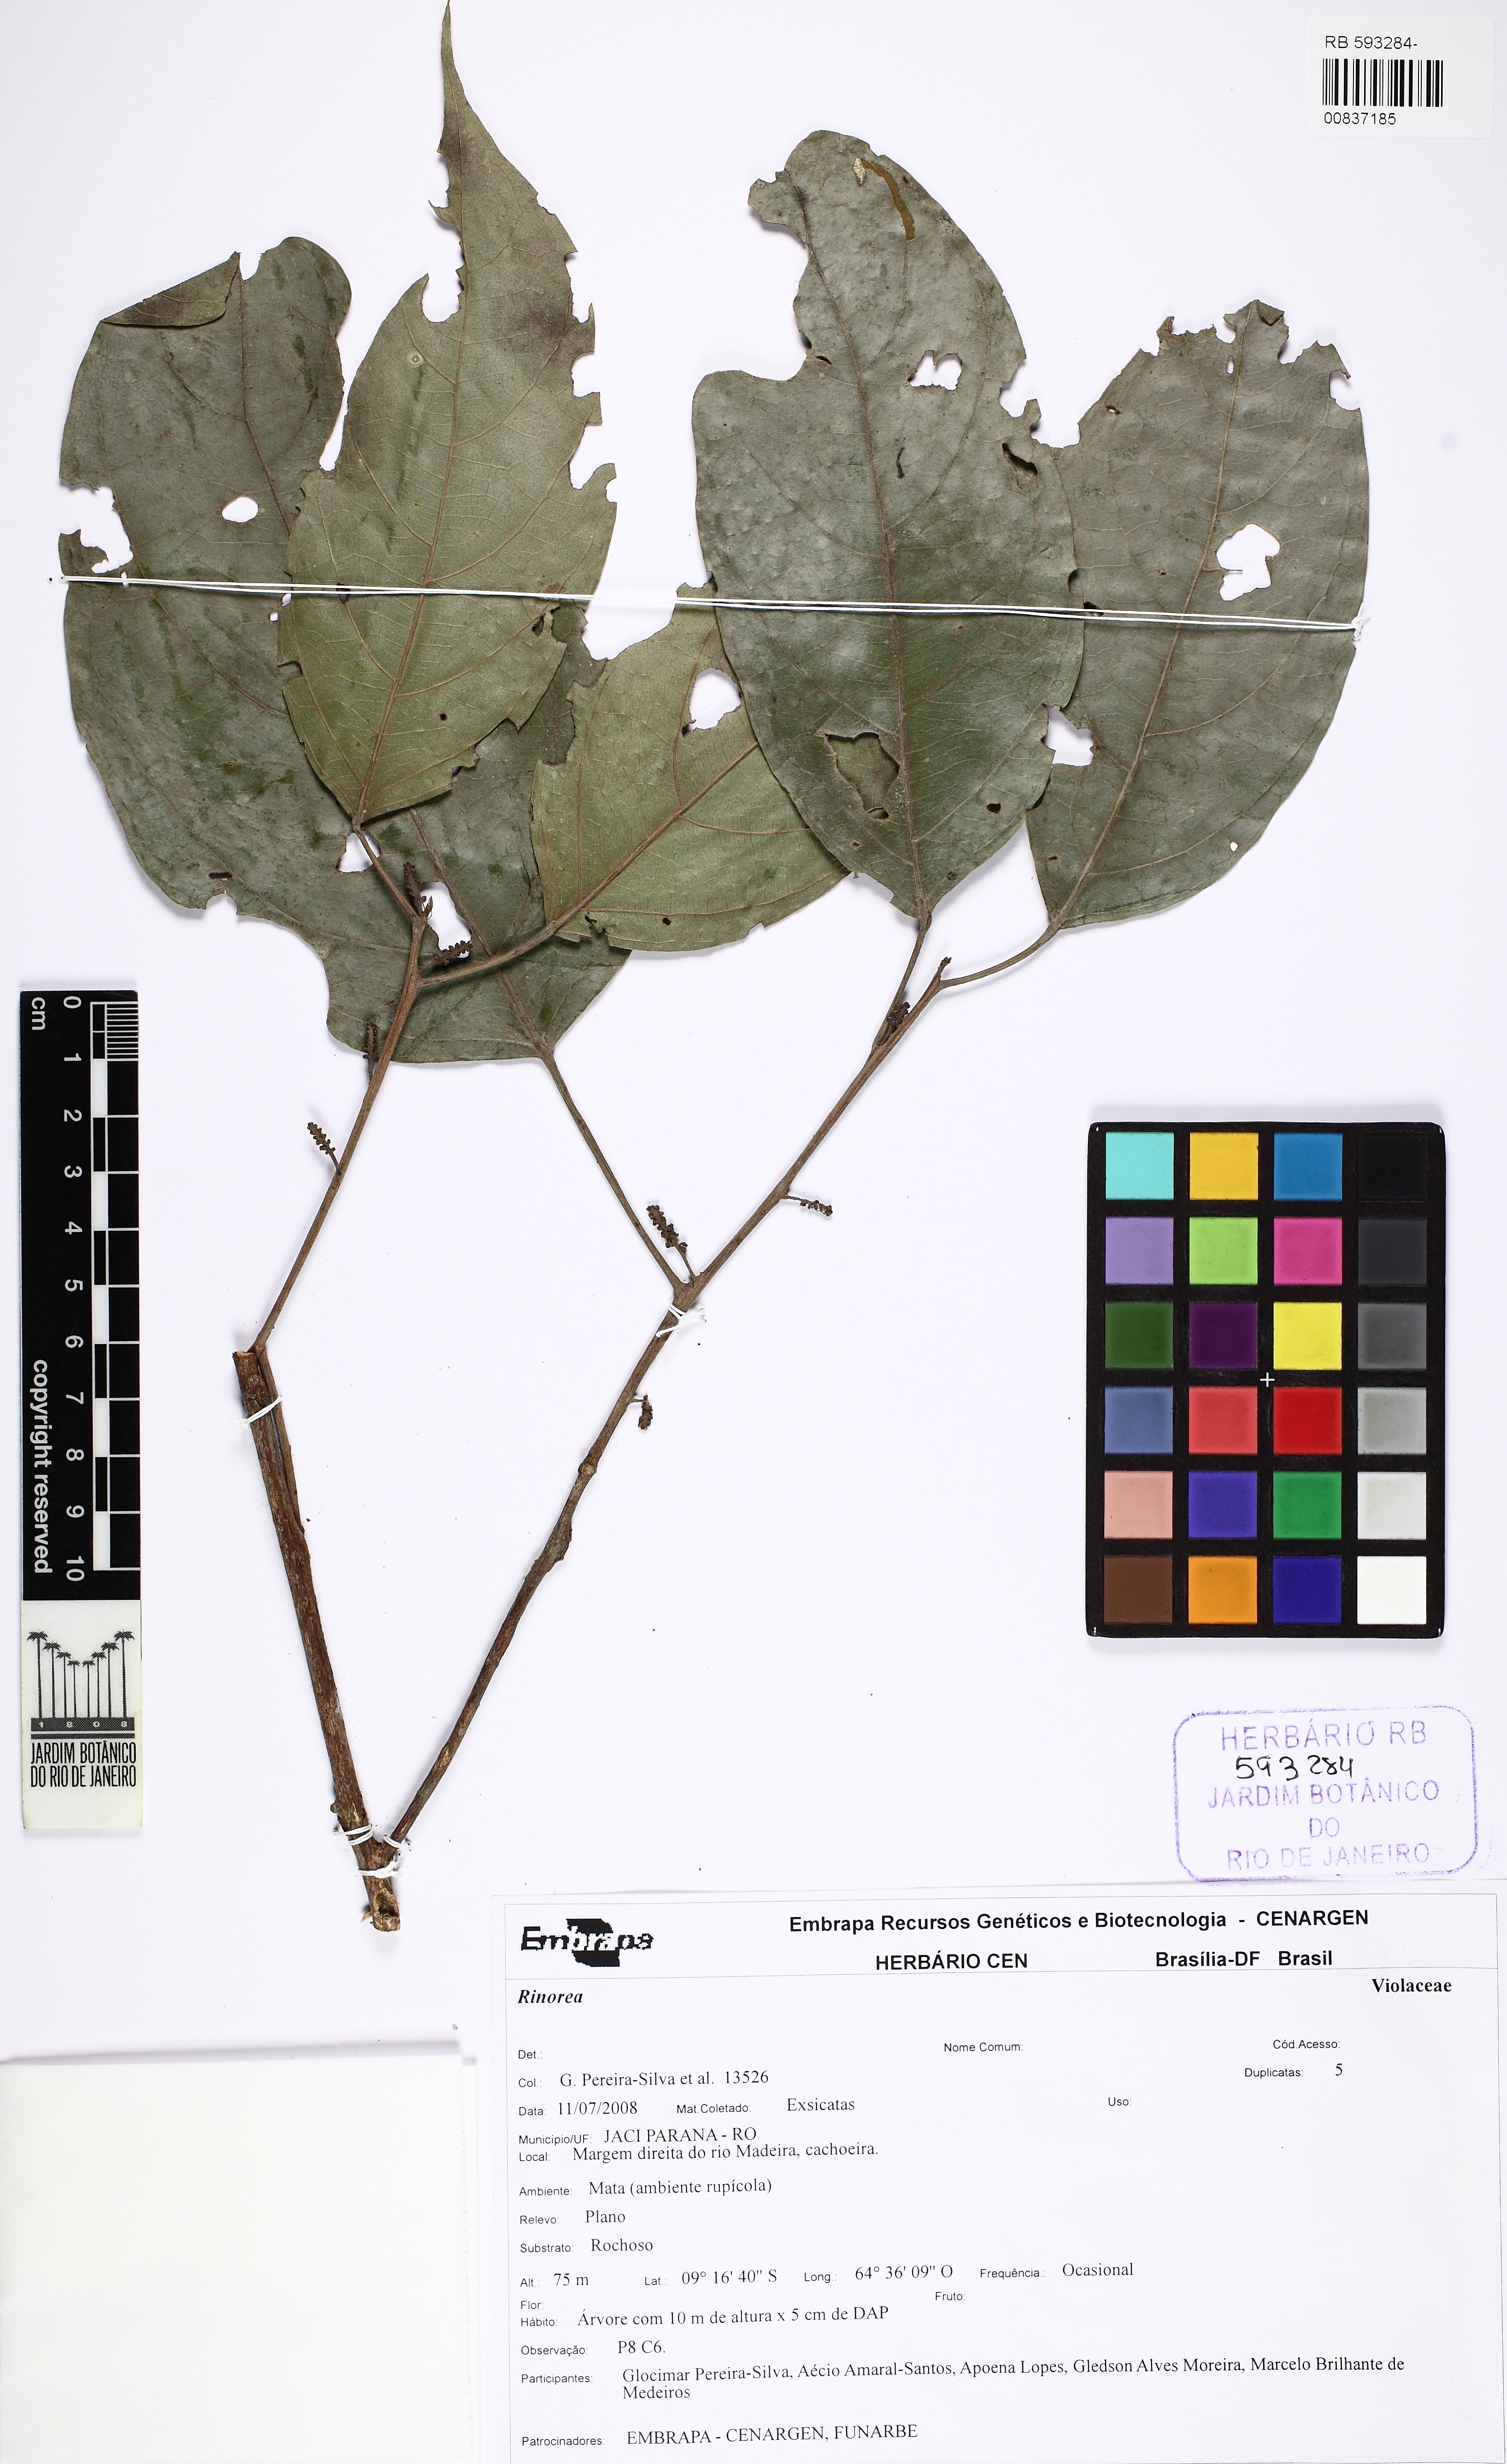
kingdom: Plantae
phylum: Tracheophyta
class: Magnoliopsida
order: Malpighiales
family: Violaceae
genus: Rinorea
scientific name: Rinorea
